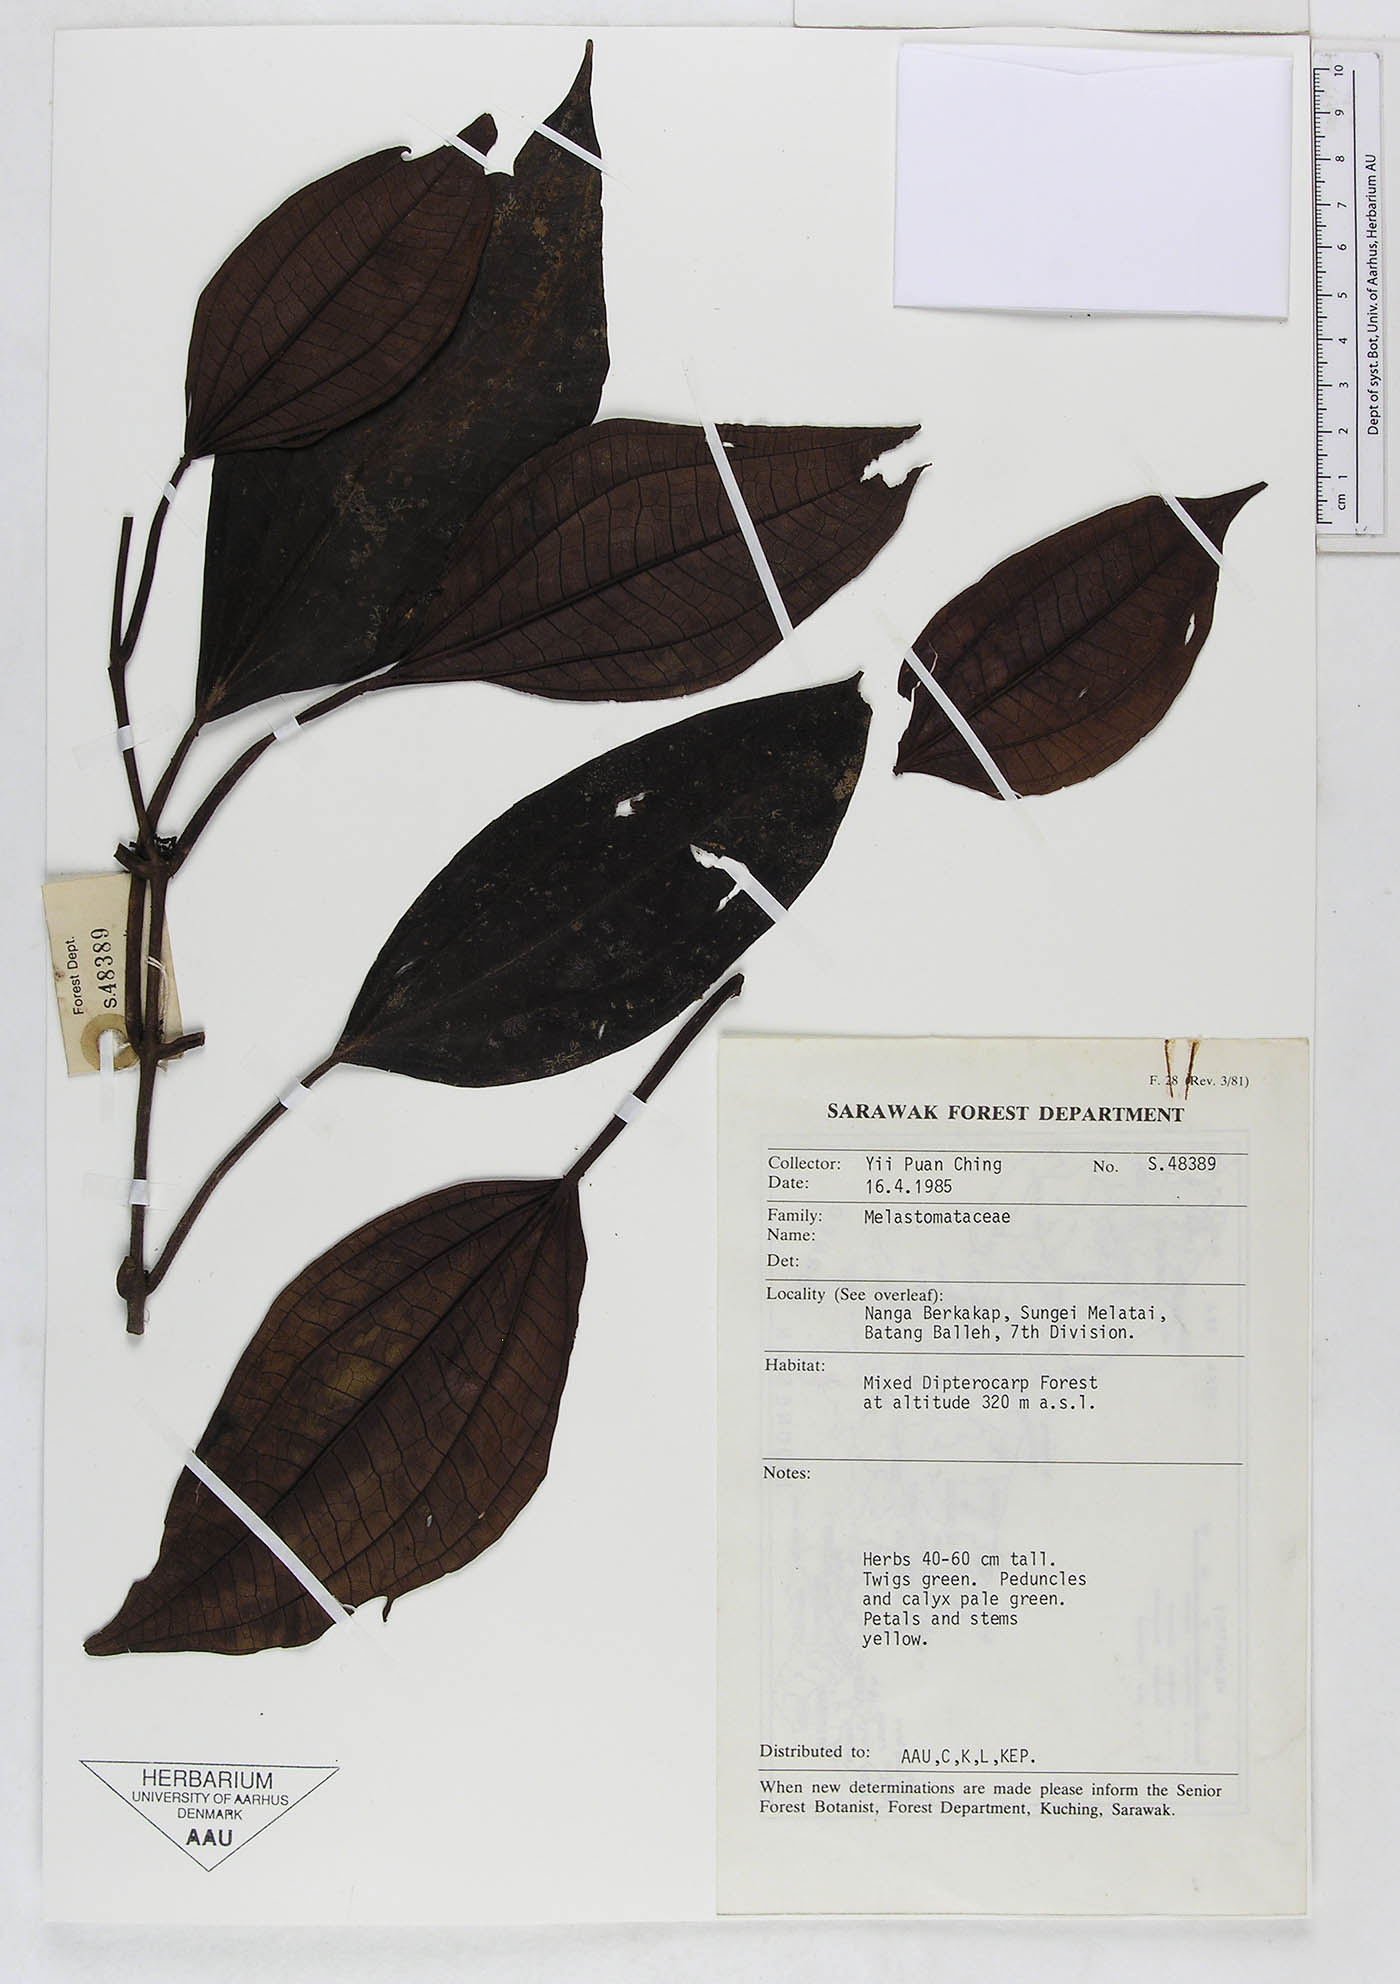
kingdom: Plantae
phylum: Tracheophyta
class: Magnoliopsida
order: Myrtales
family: Melastomataceae
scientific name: Melastomataceae
